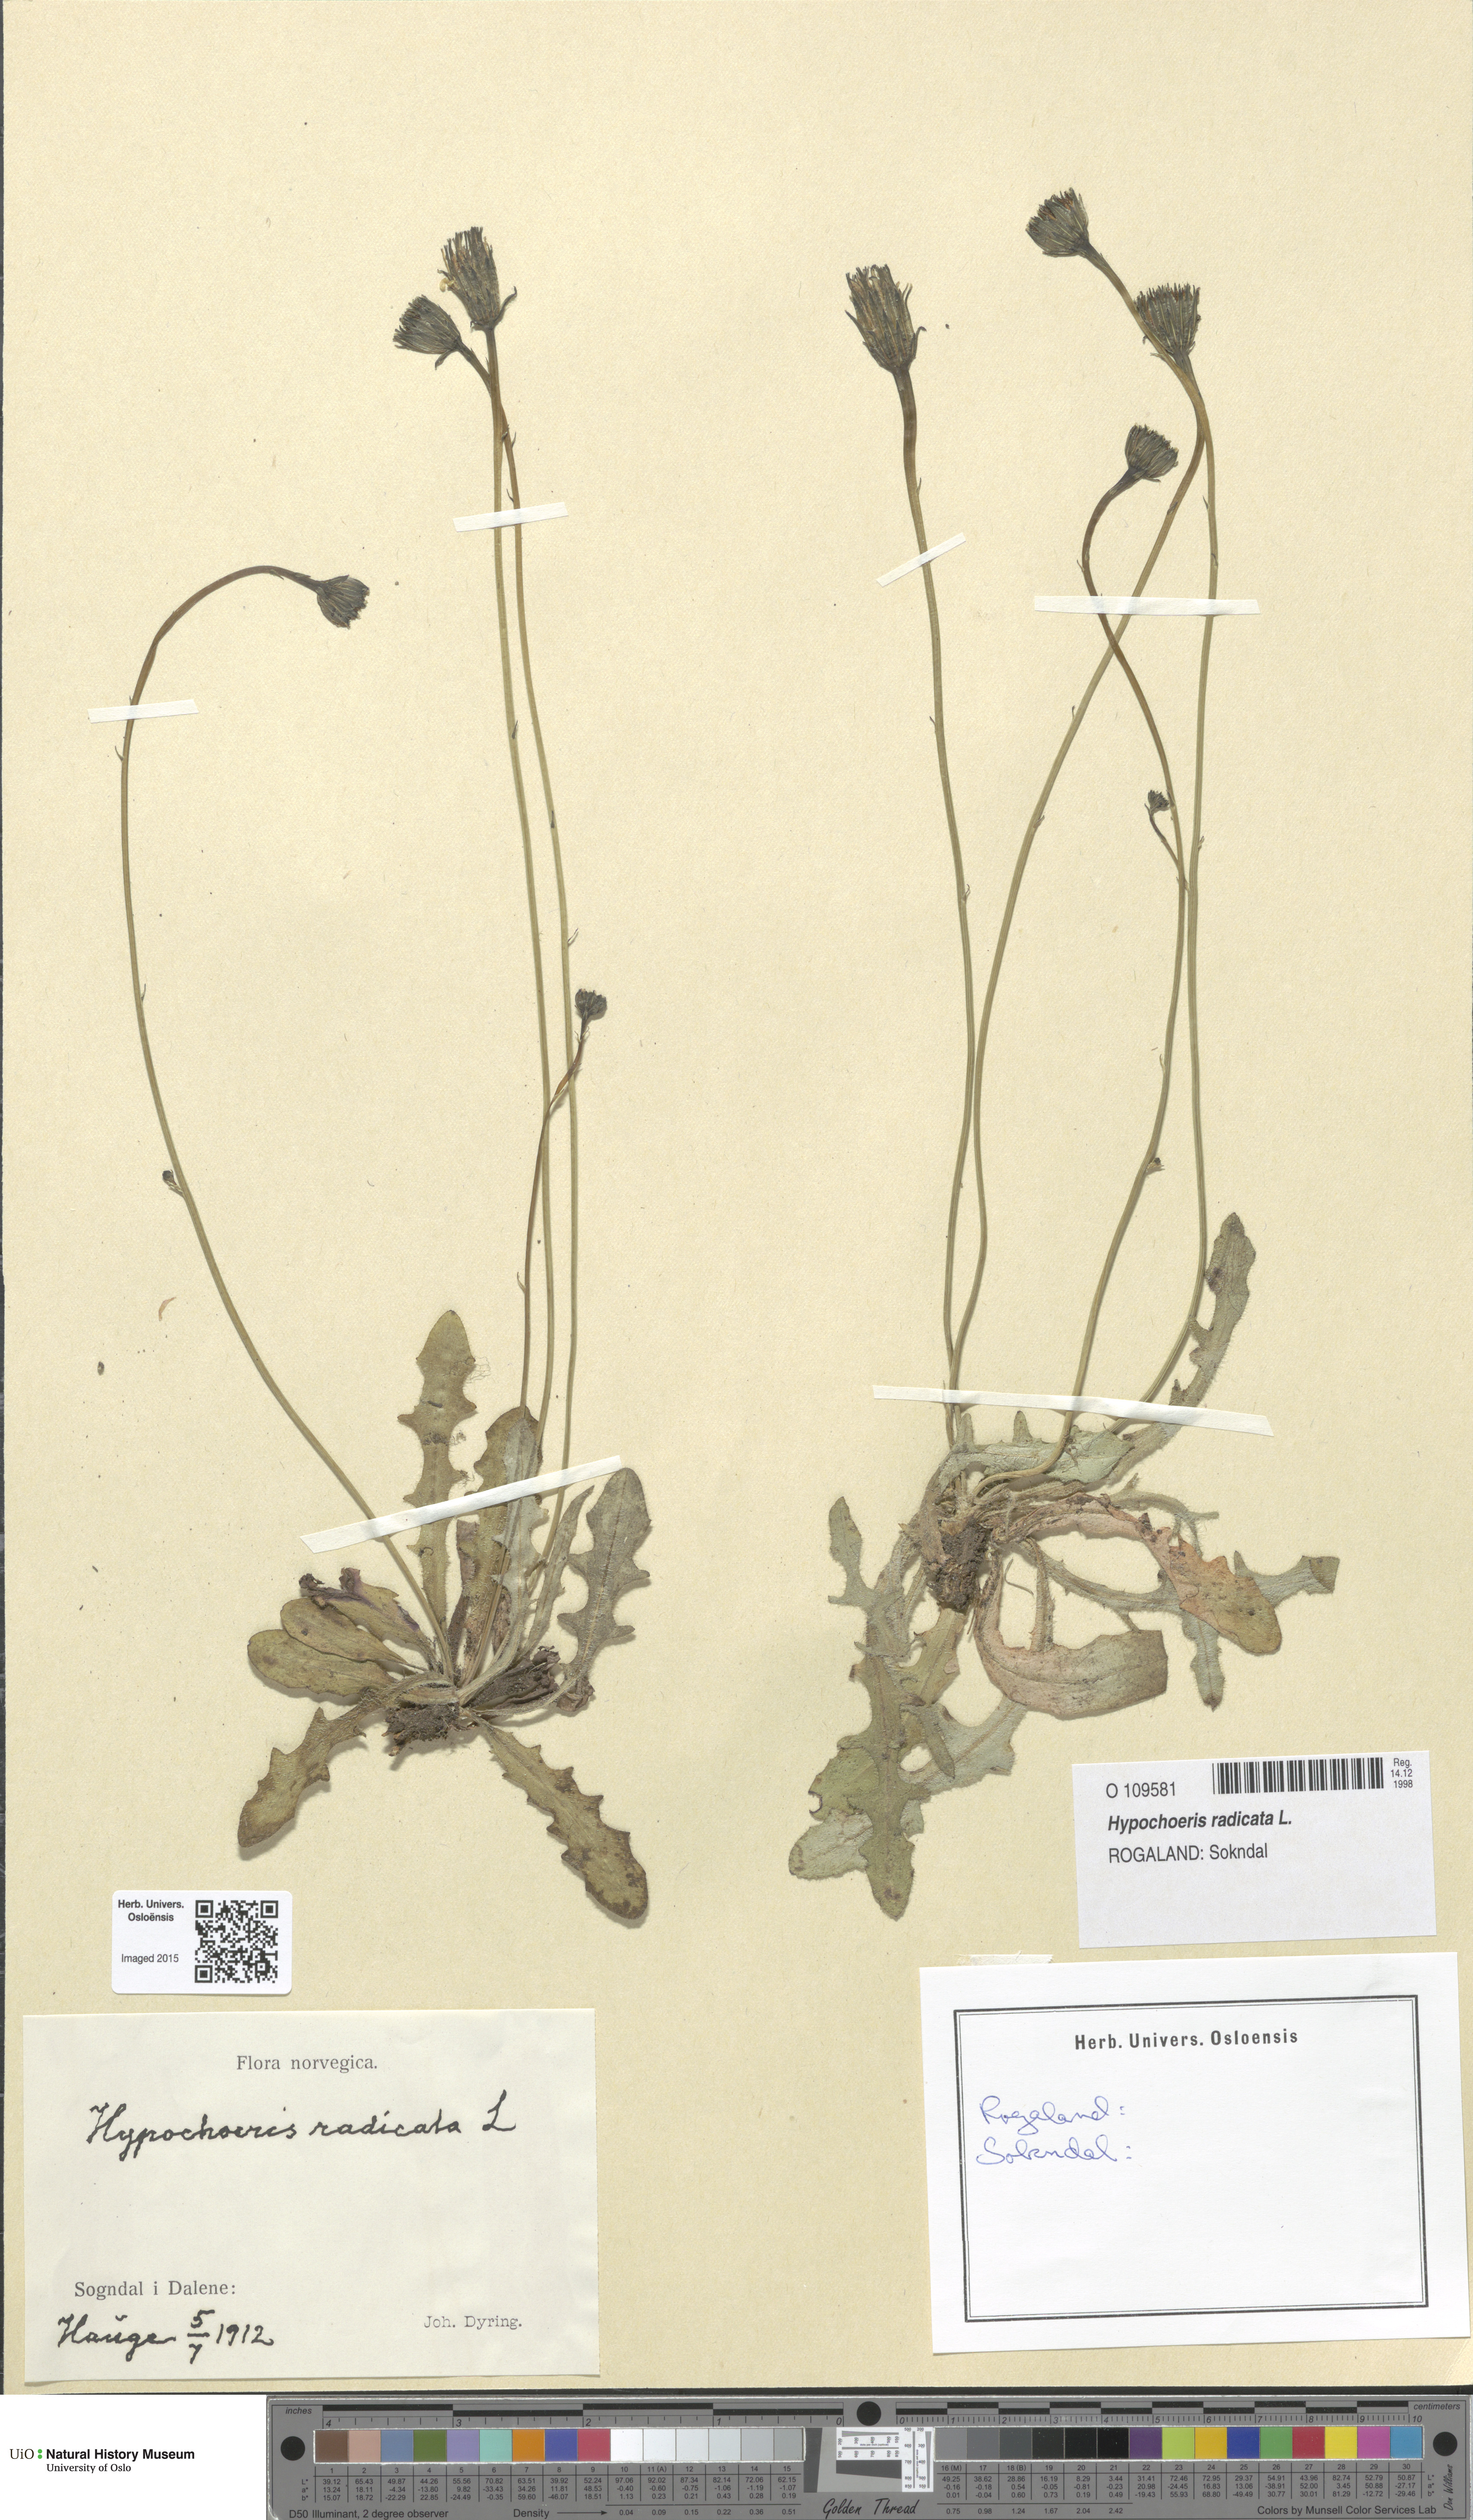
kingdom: Plantae
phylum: Tracheophyta
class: Magnoliopsida
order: Asterales
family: Asteraceae
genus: Hypochaeris
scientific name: Hypochaeris radicata
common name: Flatweed
